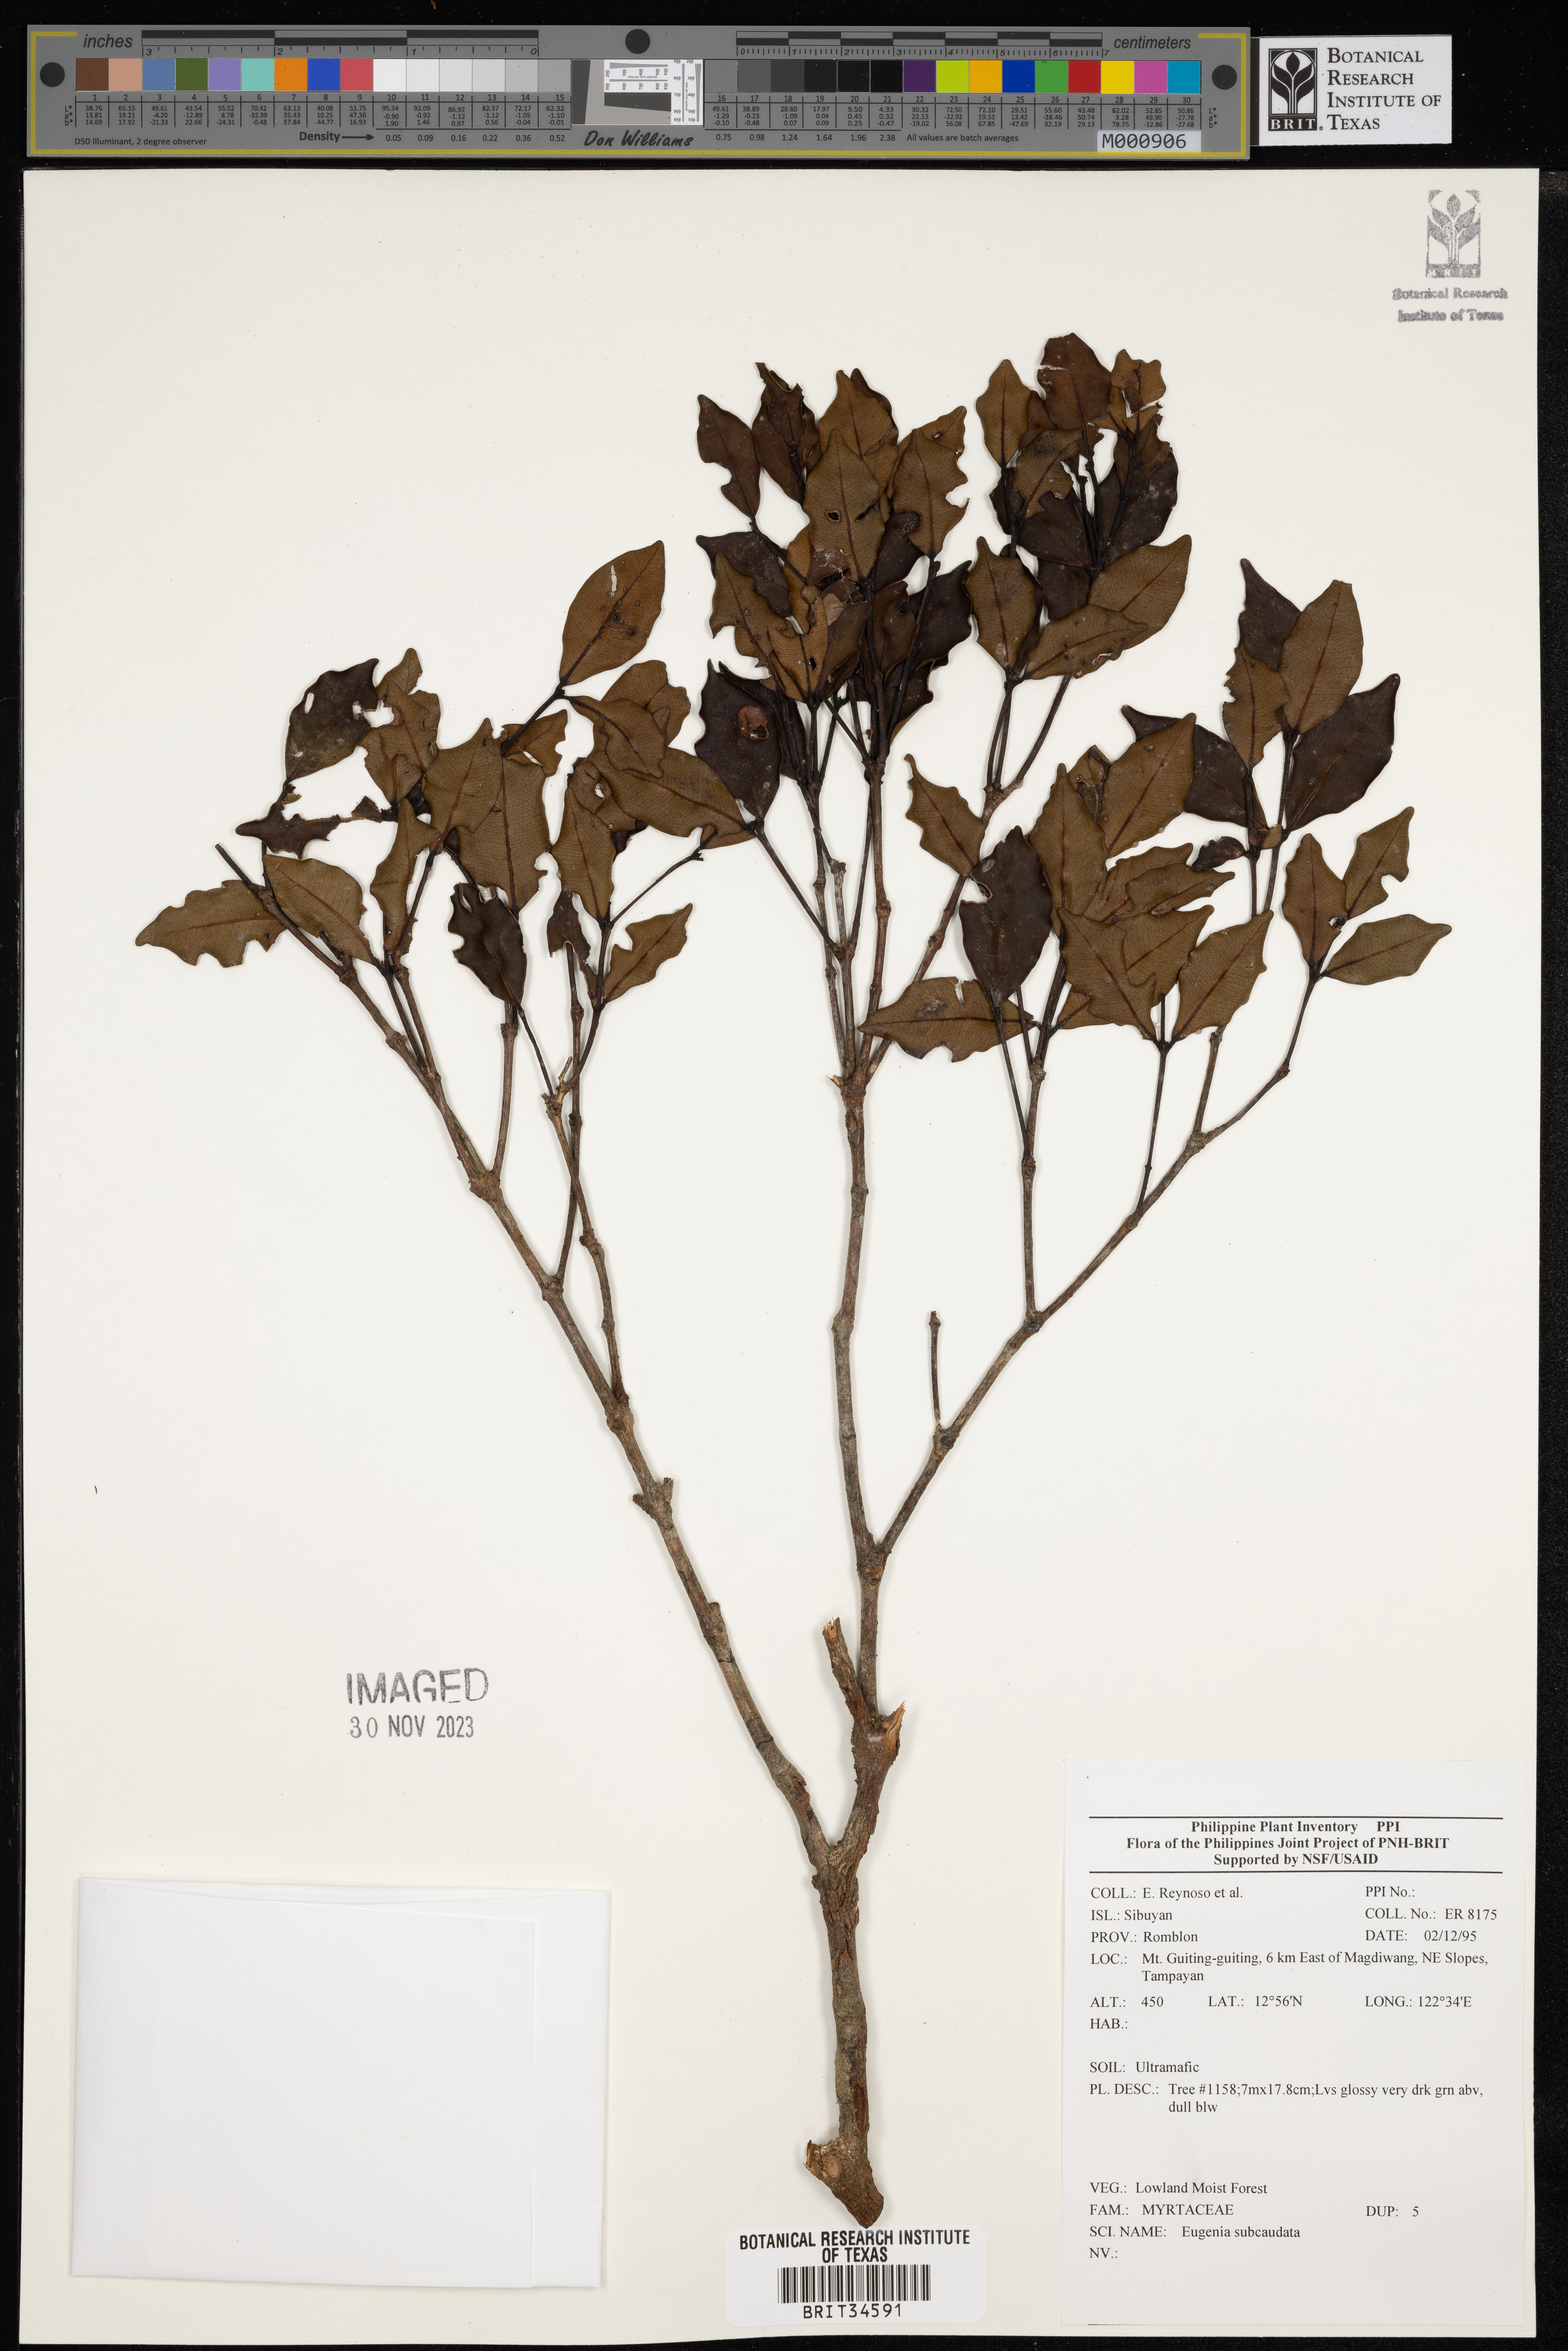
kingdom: Plantae
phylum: Tracheophyta
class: Magnoliopsida
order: Myrtales
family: Myrtaceae
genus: Eugenia
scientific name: Eugenia
